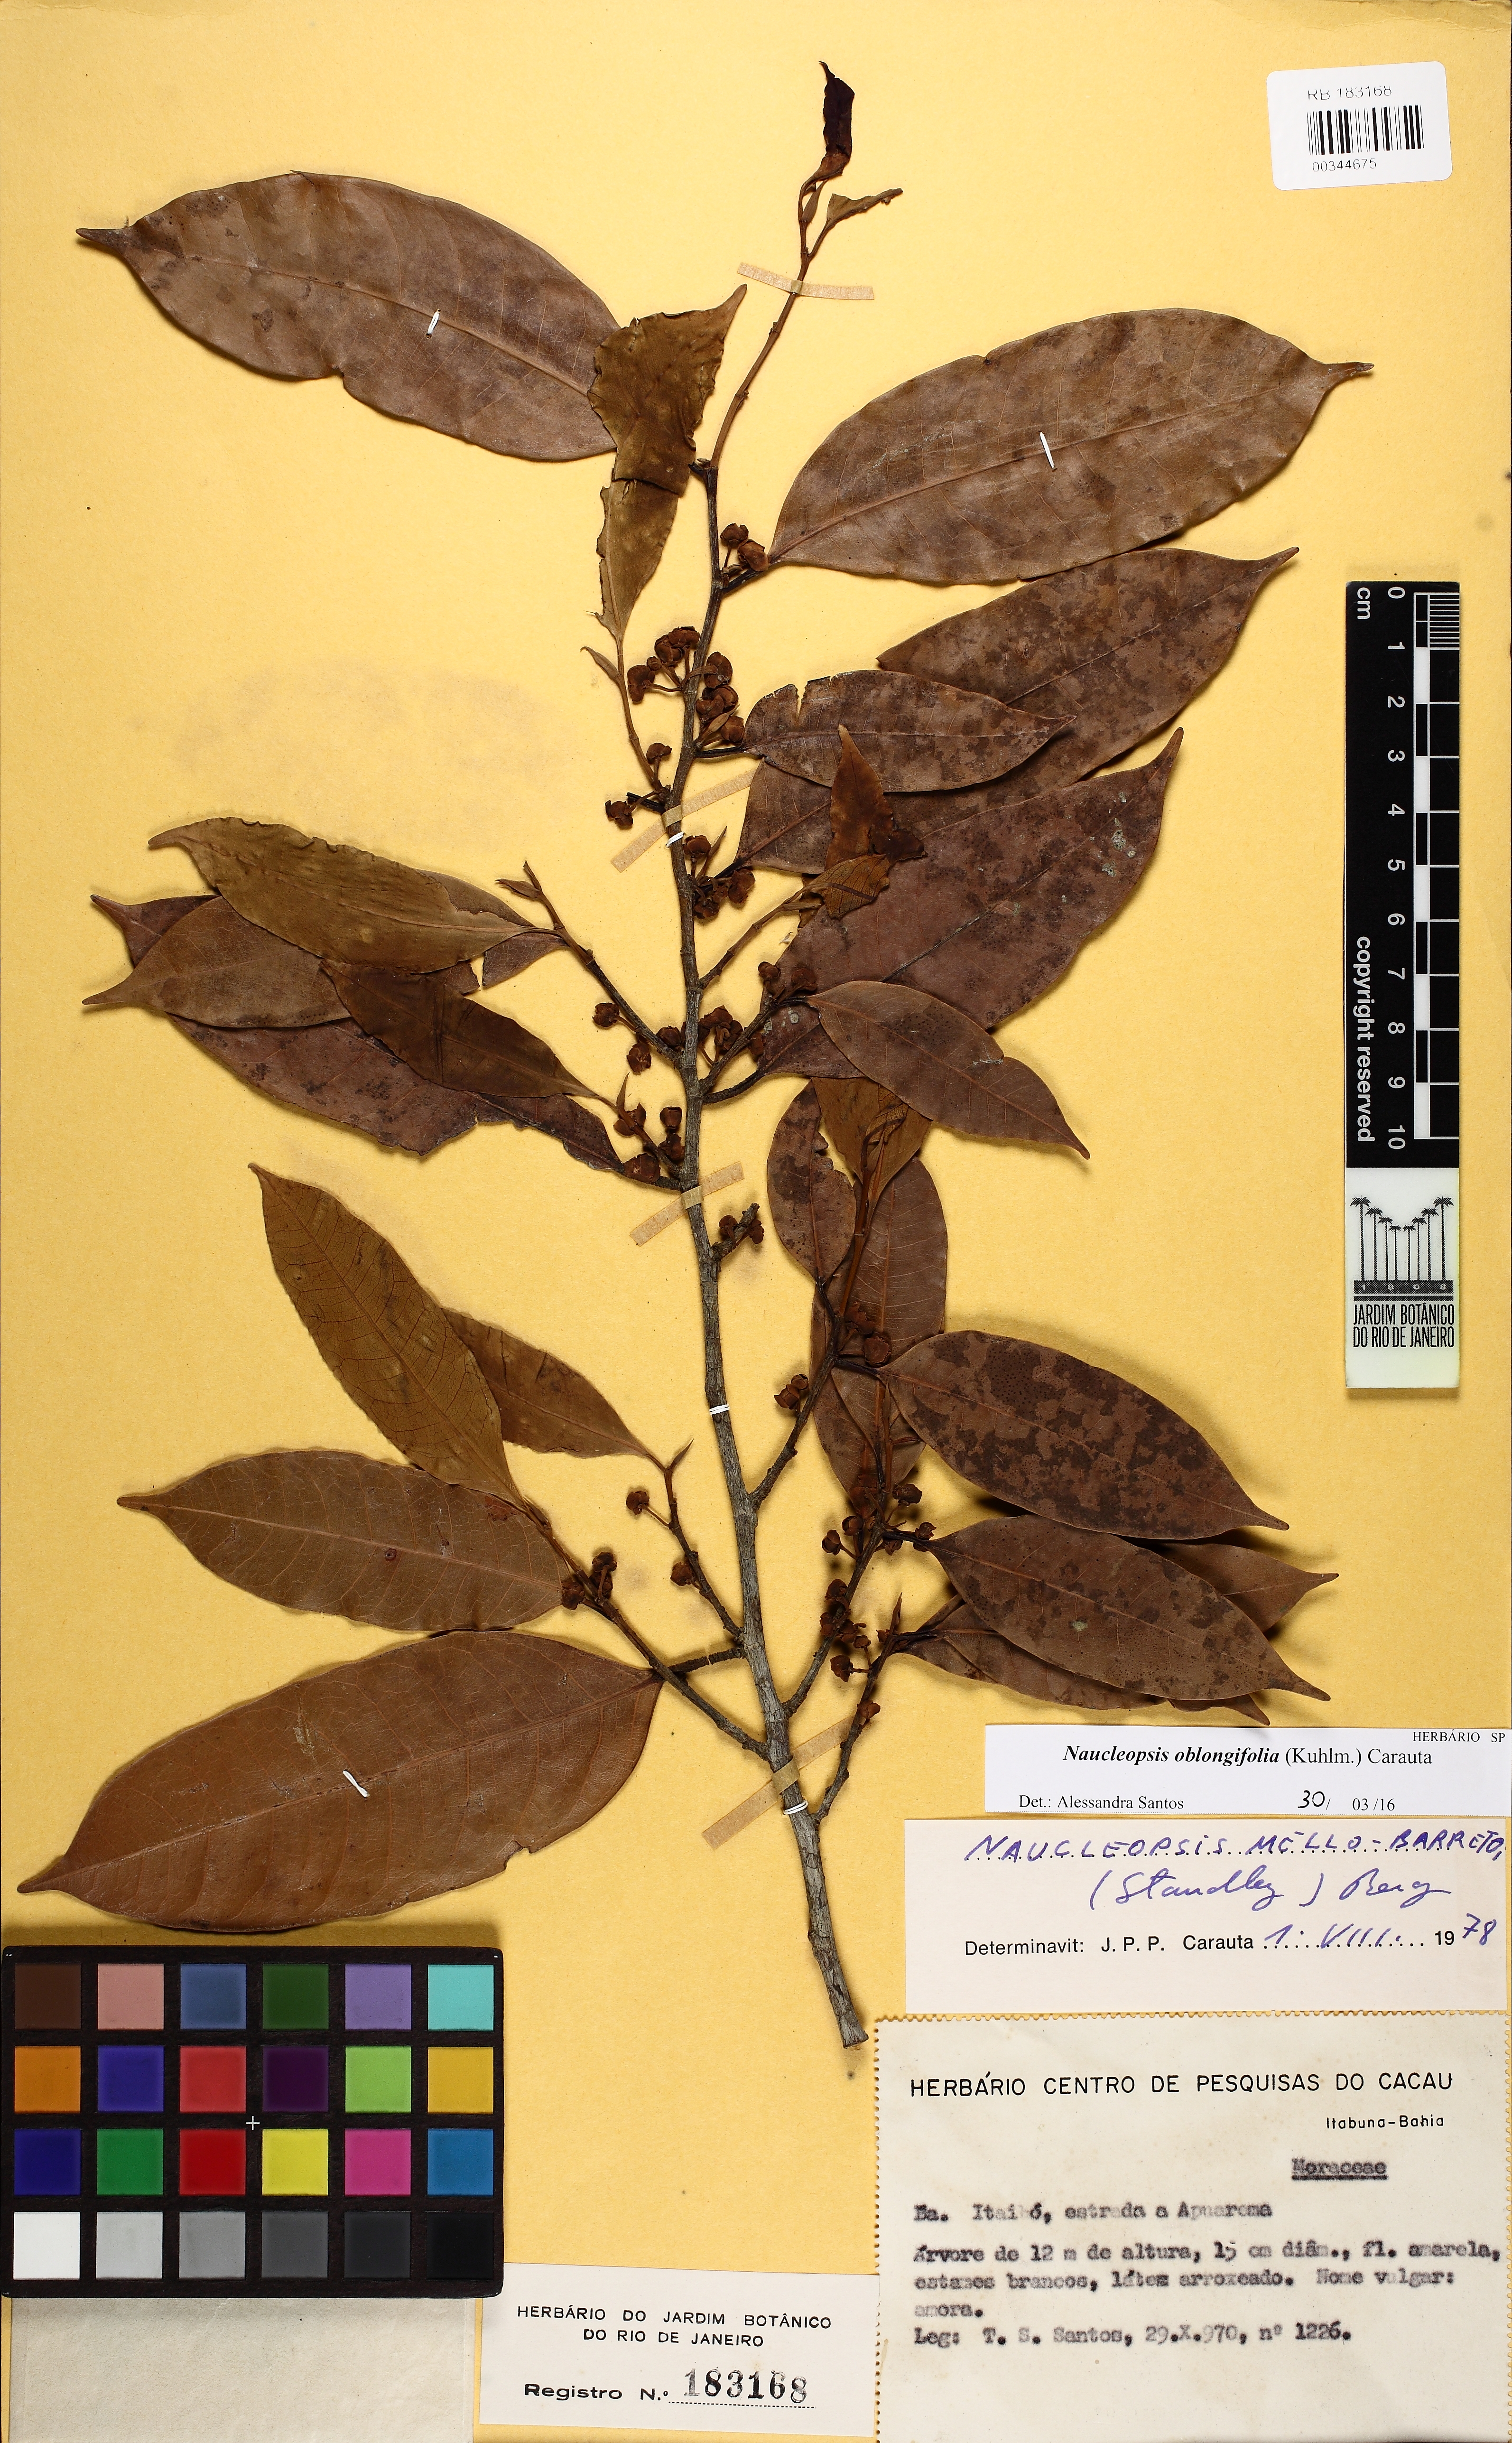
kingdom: Plantae
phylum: Tracheophyta
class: Magnoliopsida
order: Rosales
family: Moraceae
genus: Naucleopsis
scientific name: Naucleopsis oblongifolia
